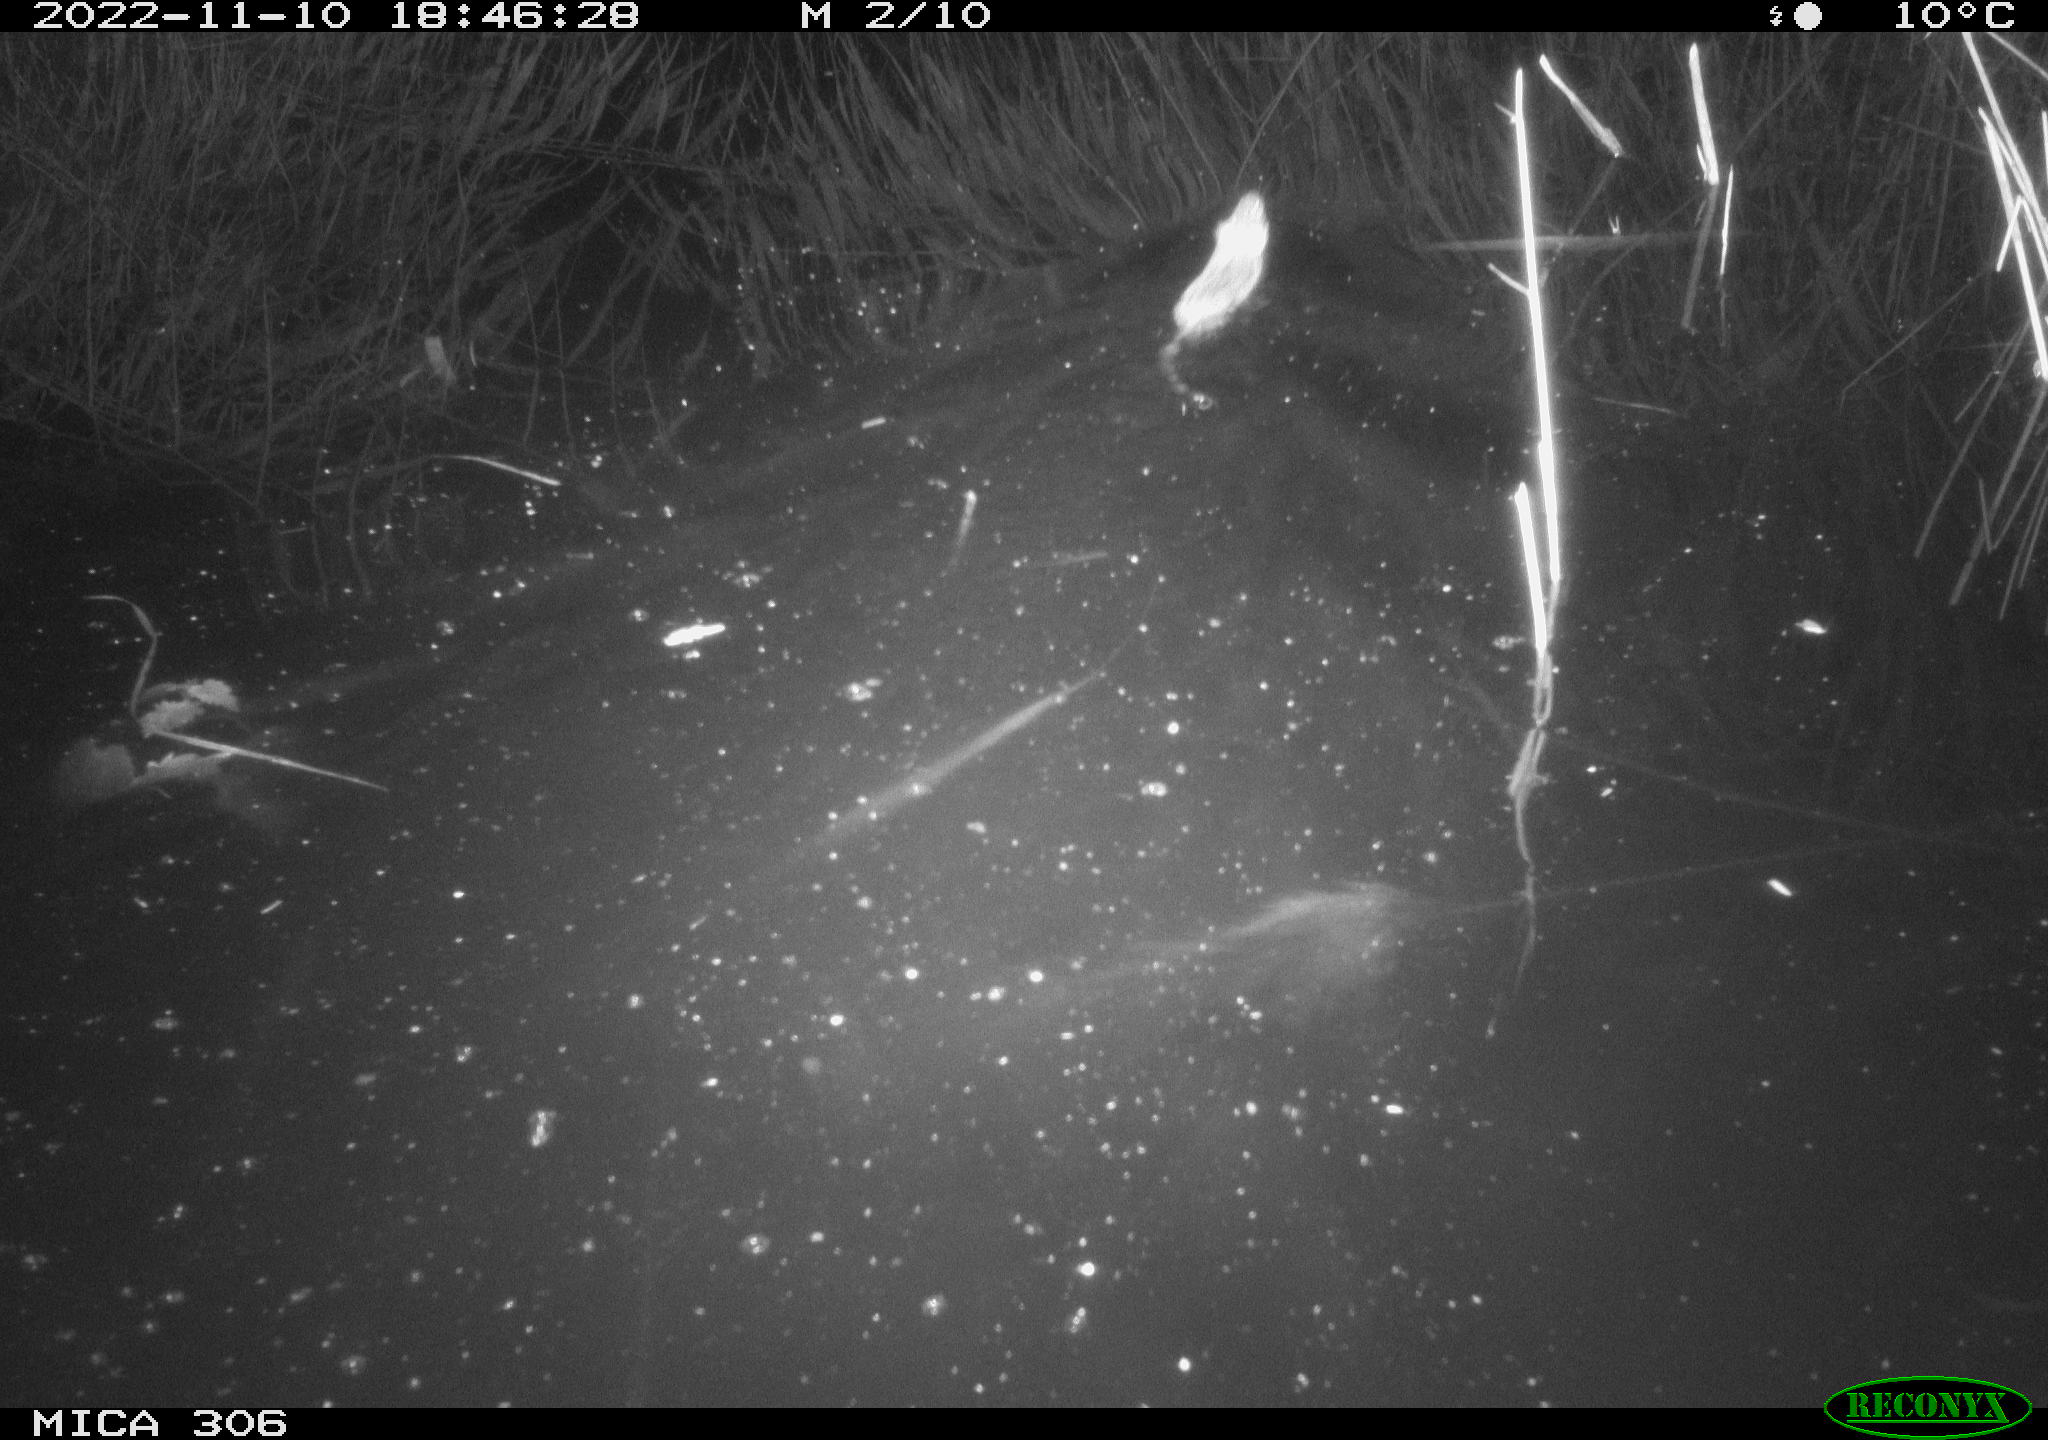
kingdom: Animalia
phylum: Chordata
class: Mammalia
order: Rodentia
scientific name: Rodentia
